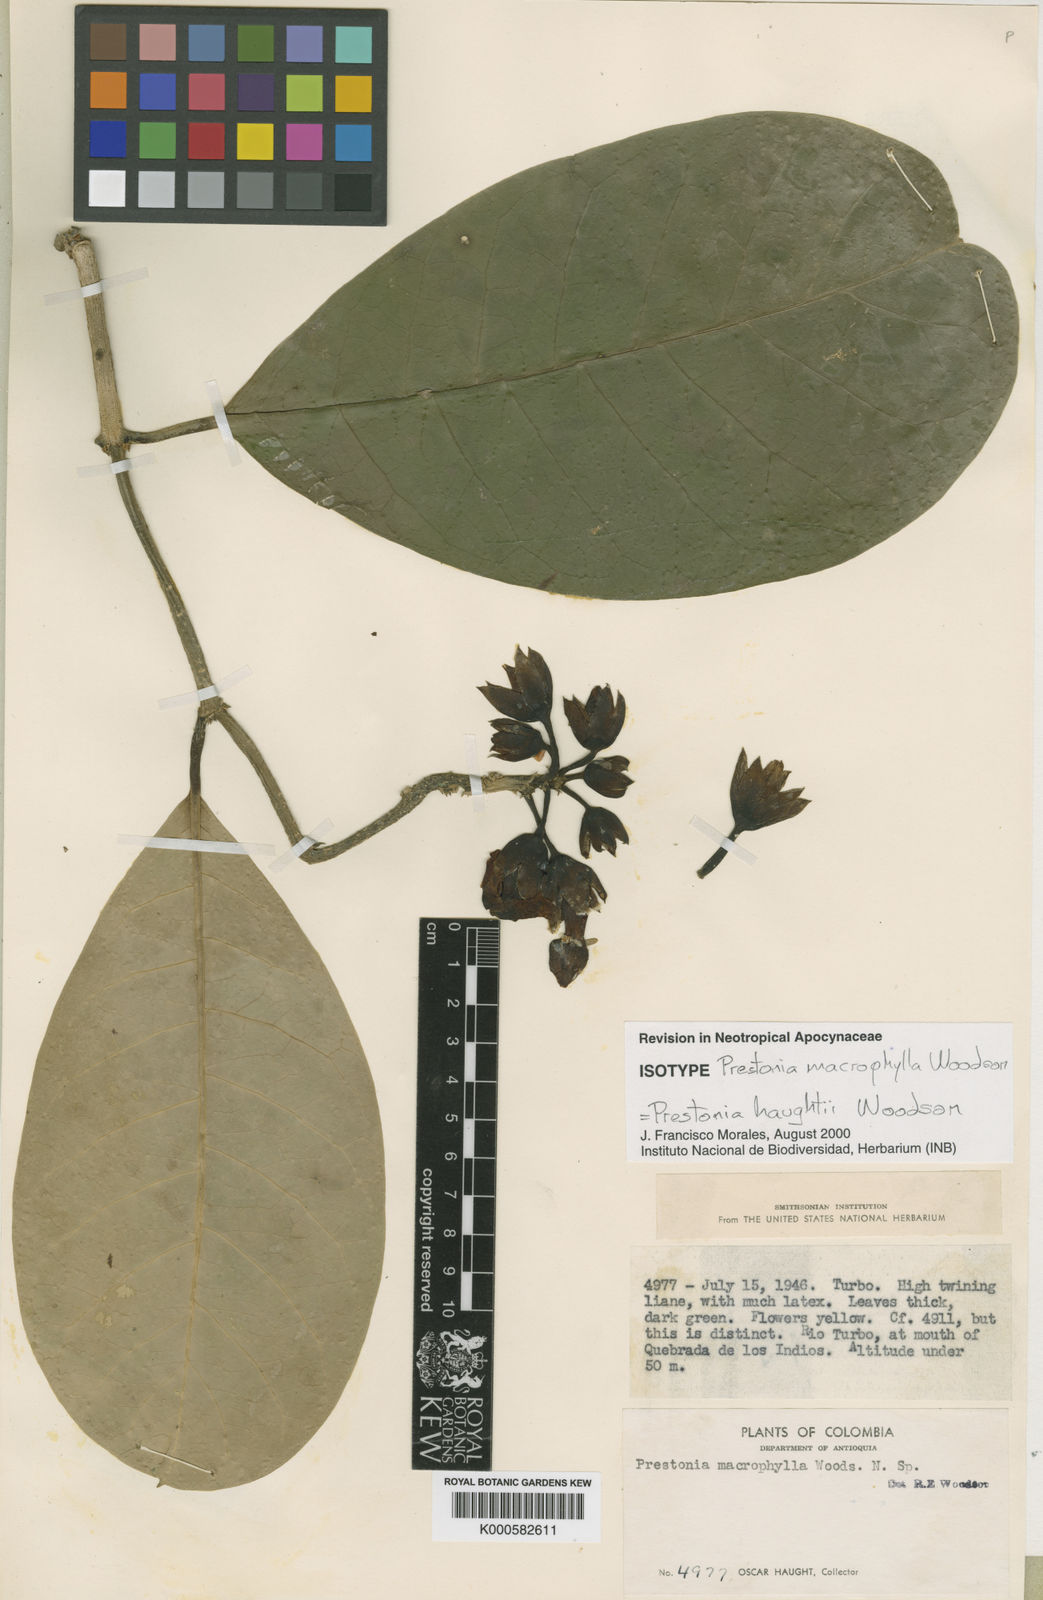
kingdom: Plantae
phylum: Tracheophyta
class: Magnoliopsida
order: Gentianales
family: Apocynaceae
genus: Prestonia
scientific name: Prestonia haughtii
